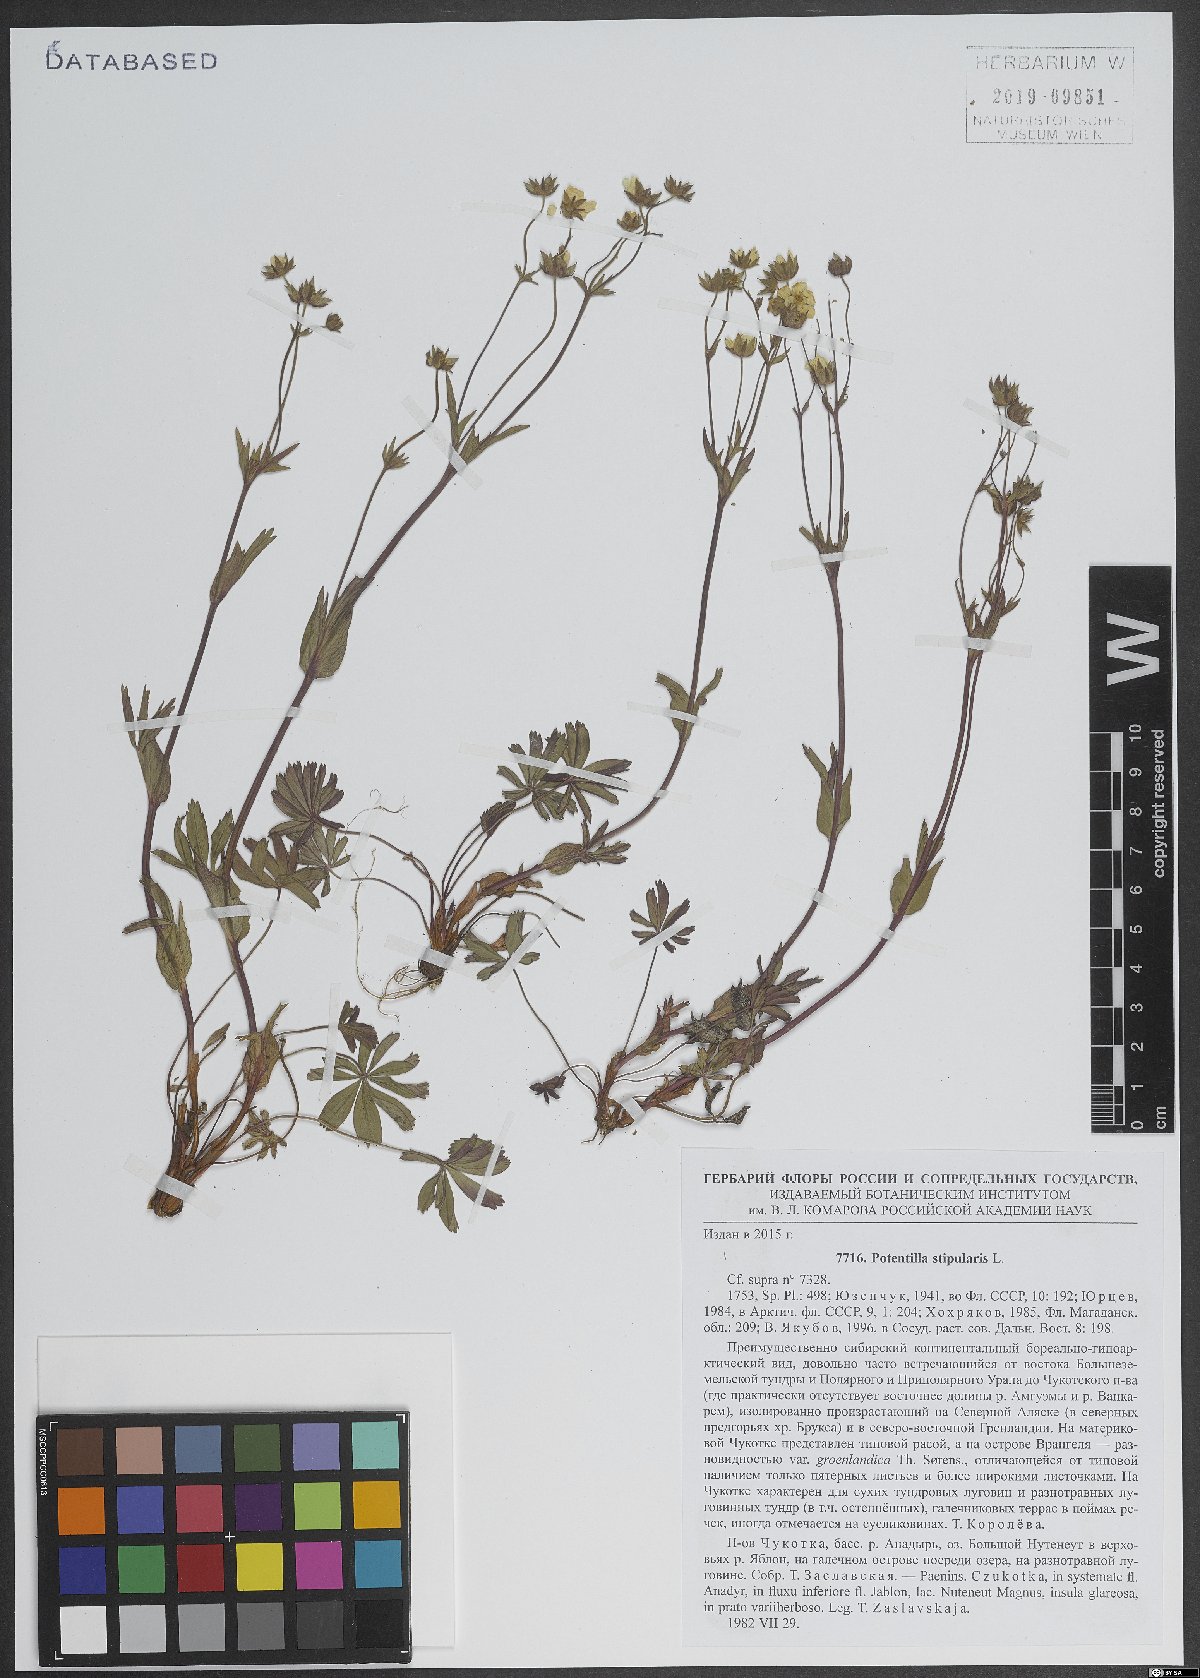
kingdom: Plantae
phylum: Tracheophyta
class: Magnoliopsida
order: Rosales
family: Rosaceae
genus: Potentilla
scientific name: Potentilla stipularis
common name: Circumpolar cinquefoil
